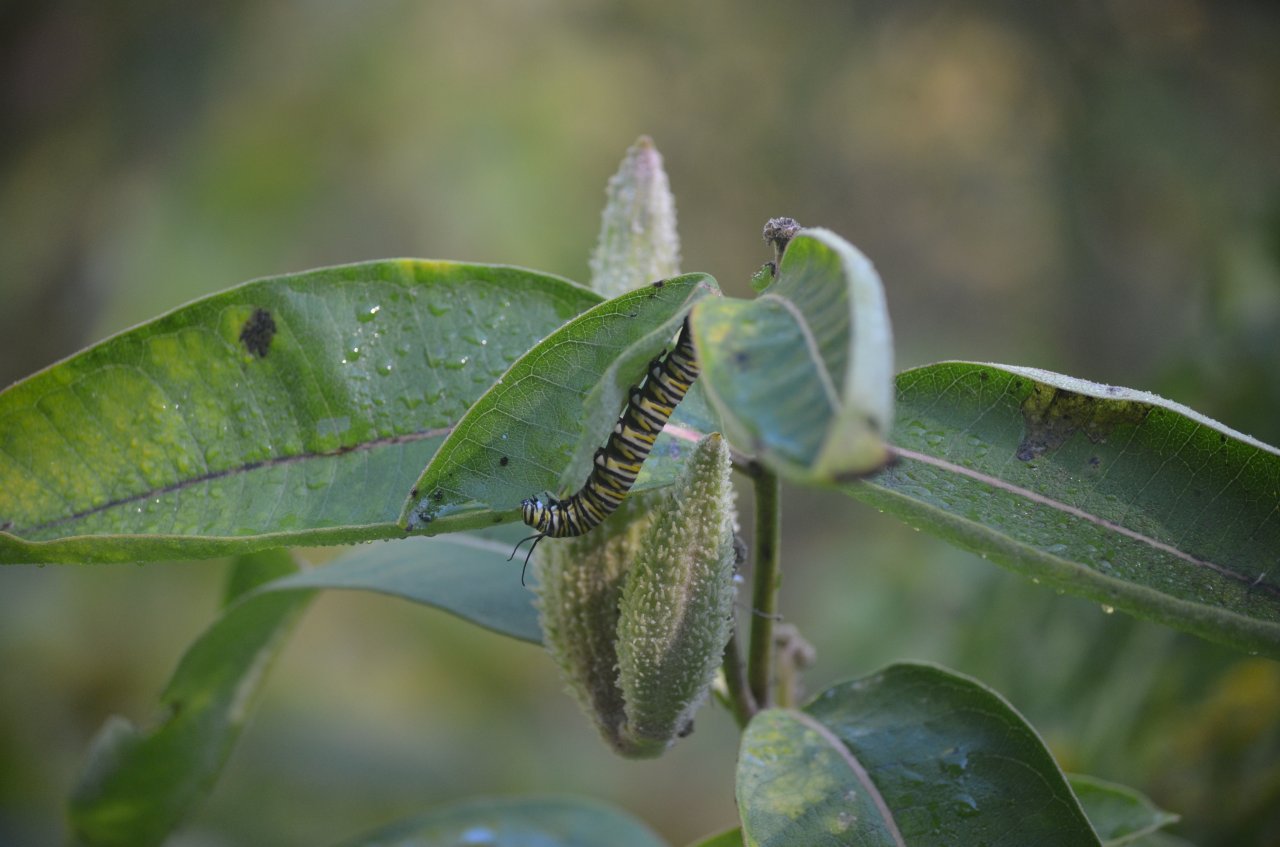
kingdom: Animalia
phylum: Arthropoda
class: Insecta
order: Lepidoptera
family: Nymphalidae
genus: Danaus
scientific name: Danaus plexippus
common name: Monarch
